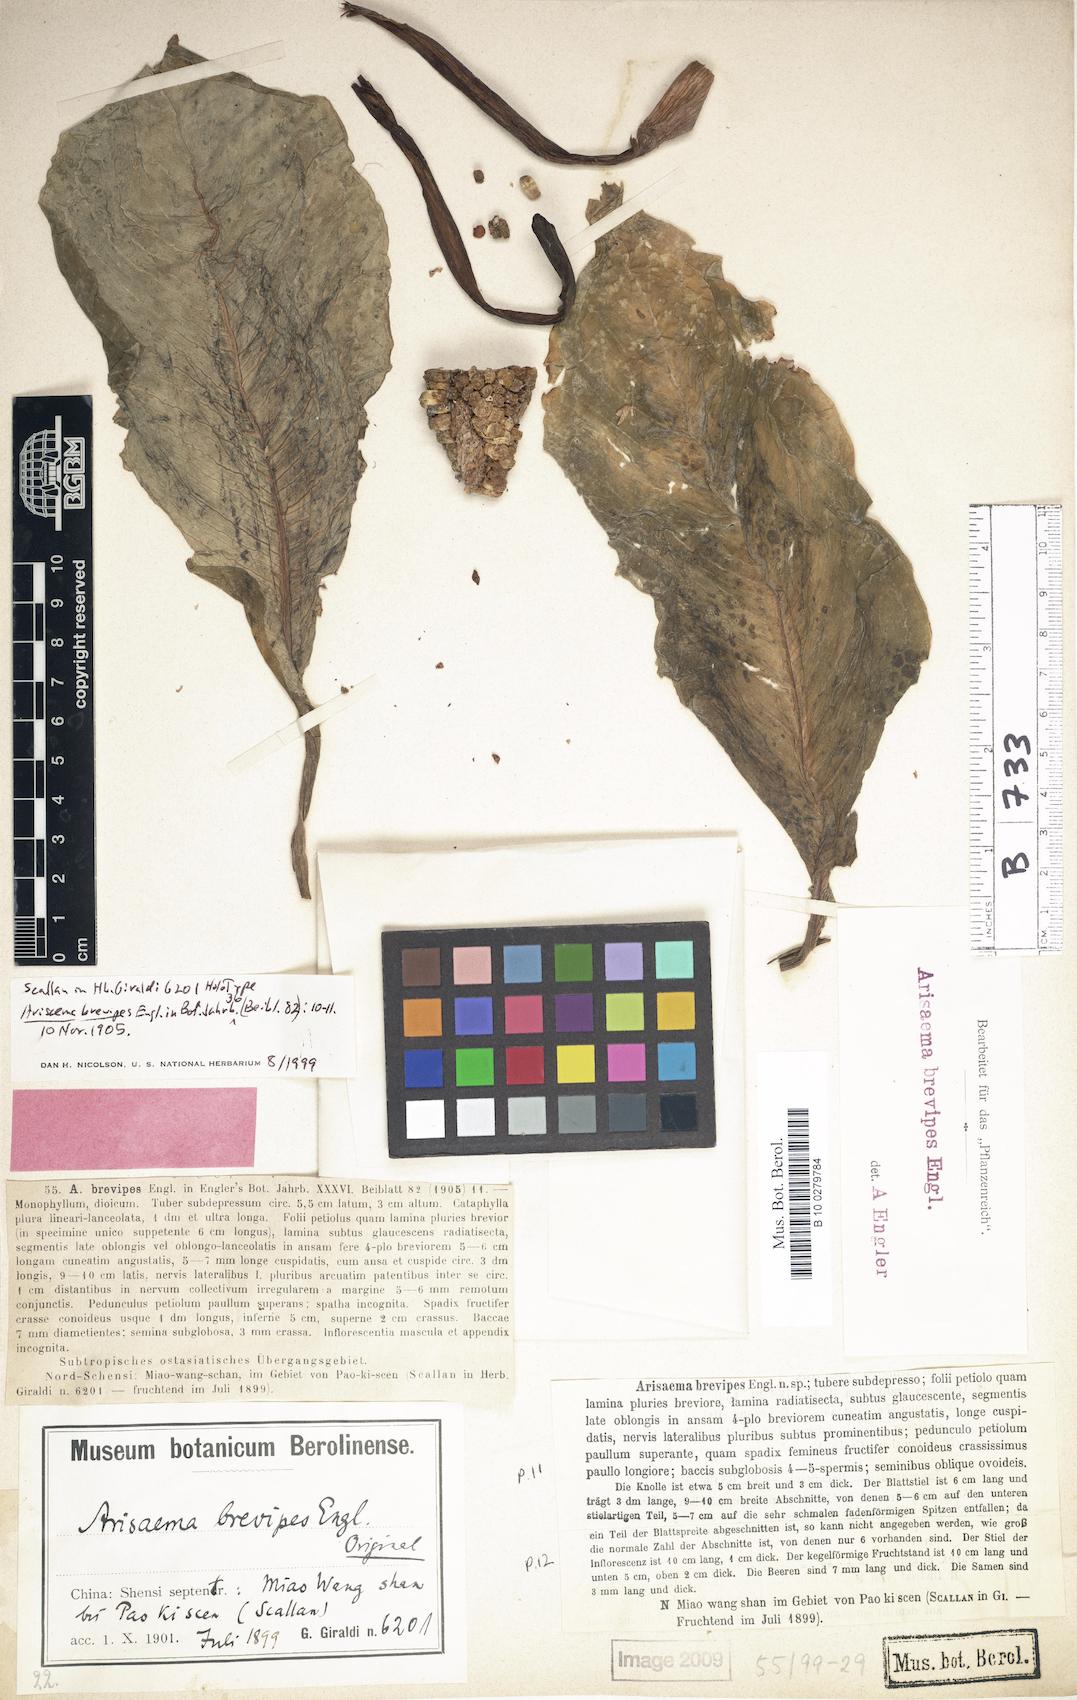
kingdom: Plantae
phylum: Tracheophyta
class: Liliopsida
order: Alismatales
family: Araceae
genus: Arisaema
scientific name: Arisaema consanguineum
